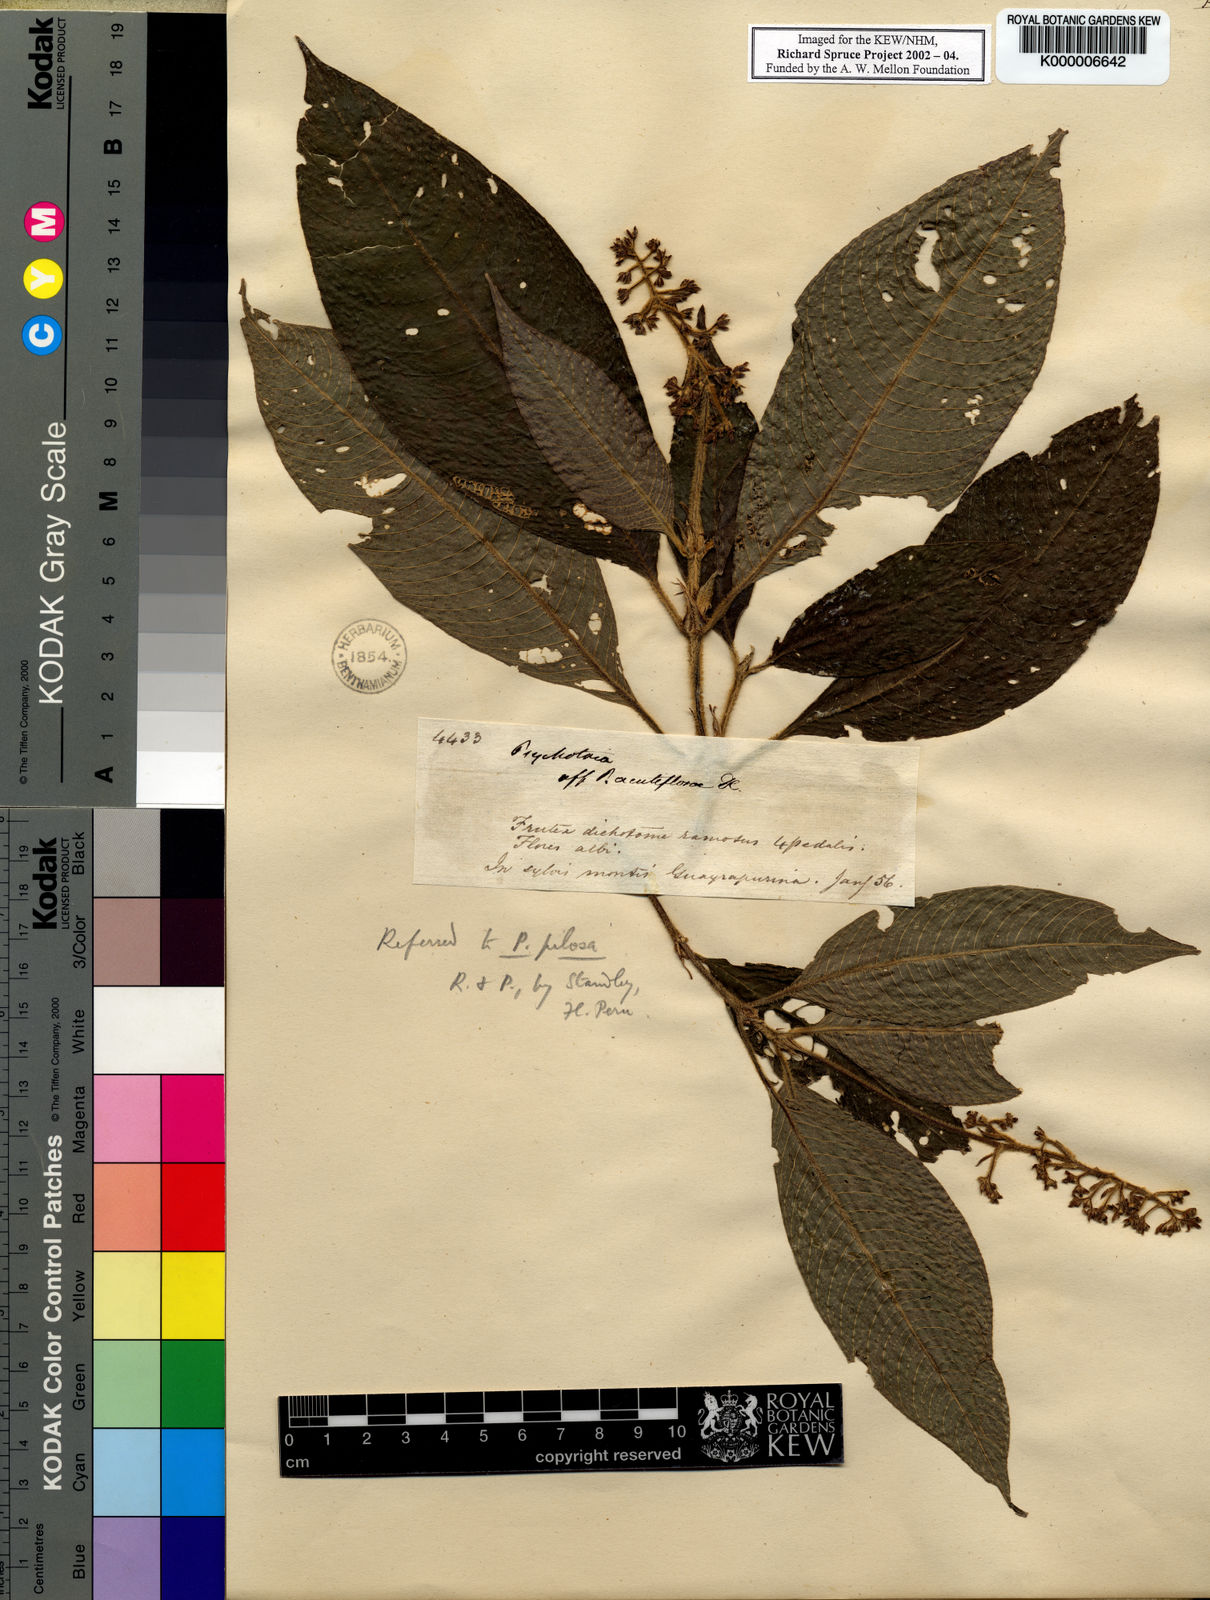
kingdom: Plantae
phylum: Tracheophyta
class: Magnoliopsida
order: Gentianales
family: Rubiaceae
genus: Palicourea
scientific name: Palicourea pilosa
